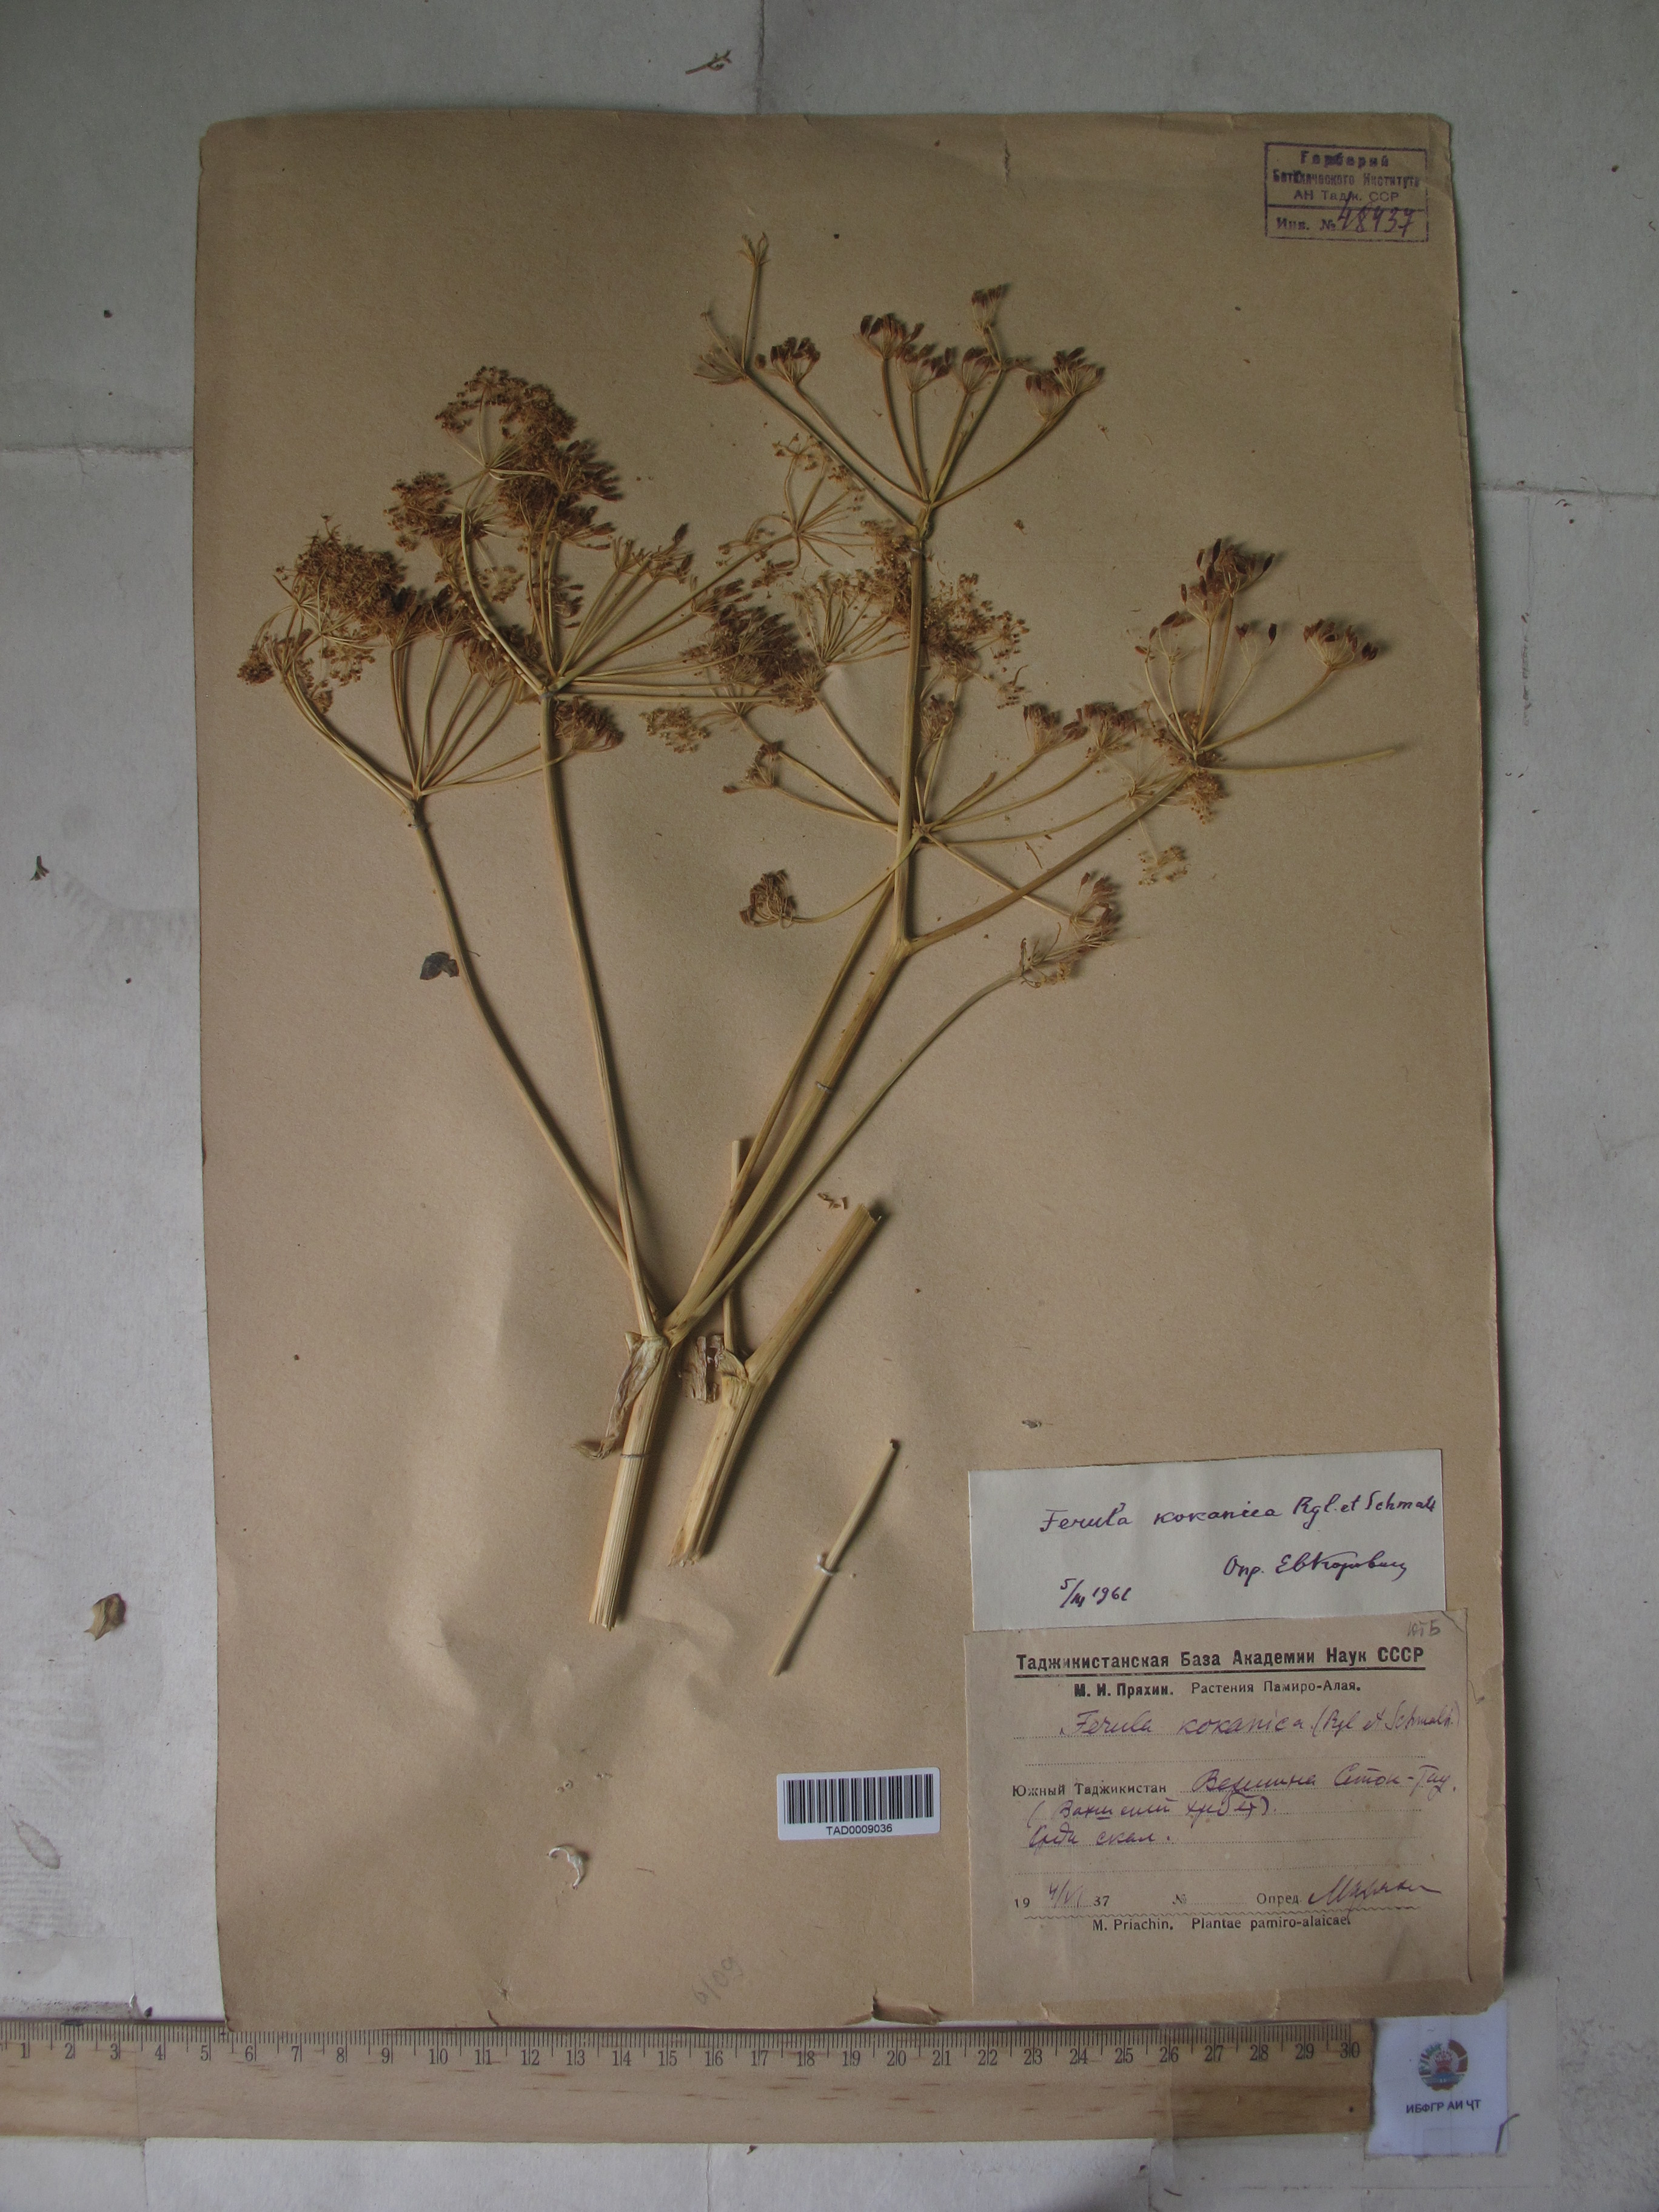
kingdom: Plantae
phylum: Tracheophyta
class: Magnoliopsida
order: Apiales
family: Apiaceae
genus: Ferula
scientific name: Ferula kokanica
